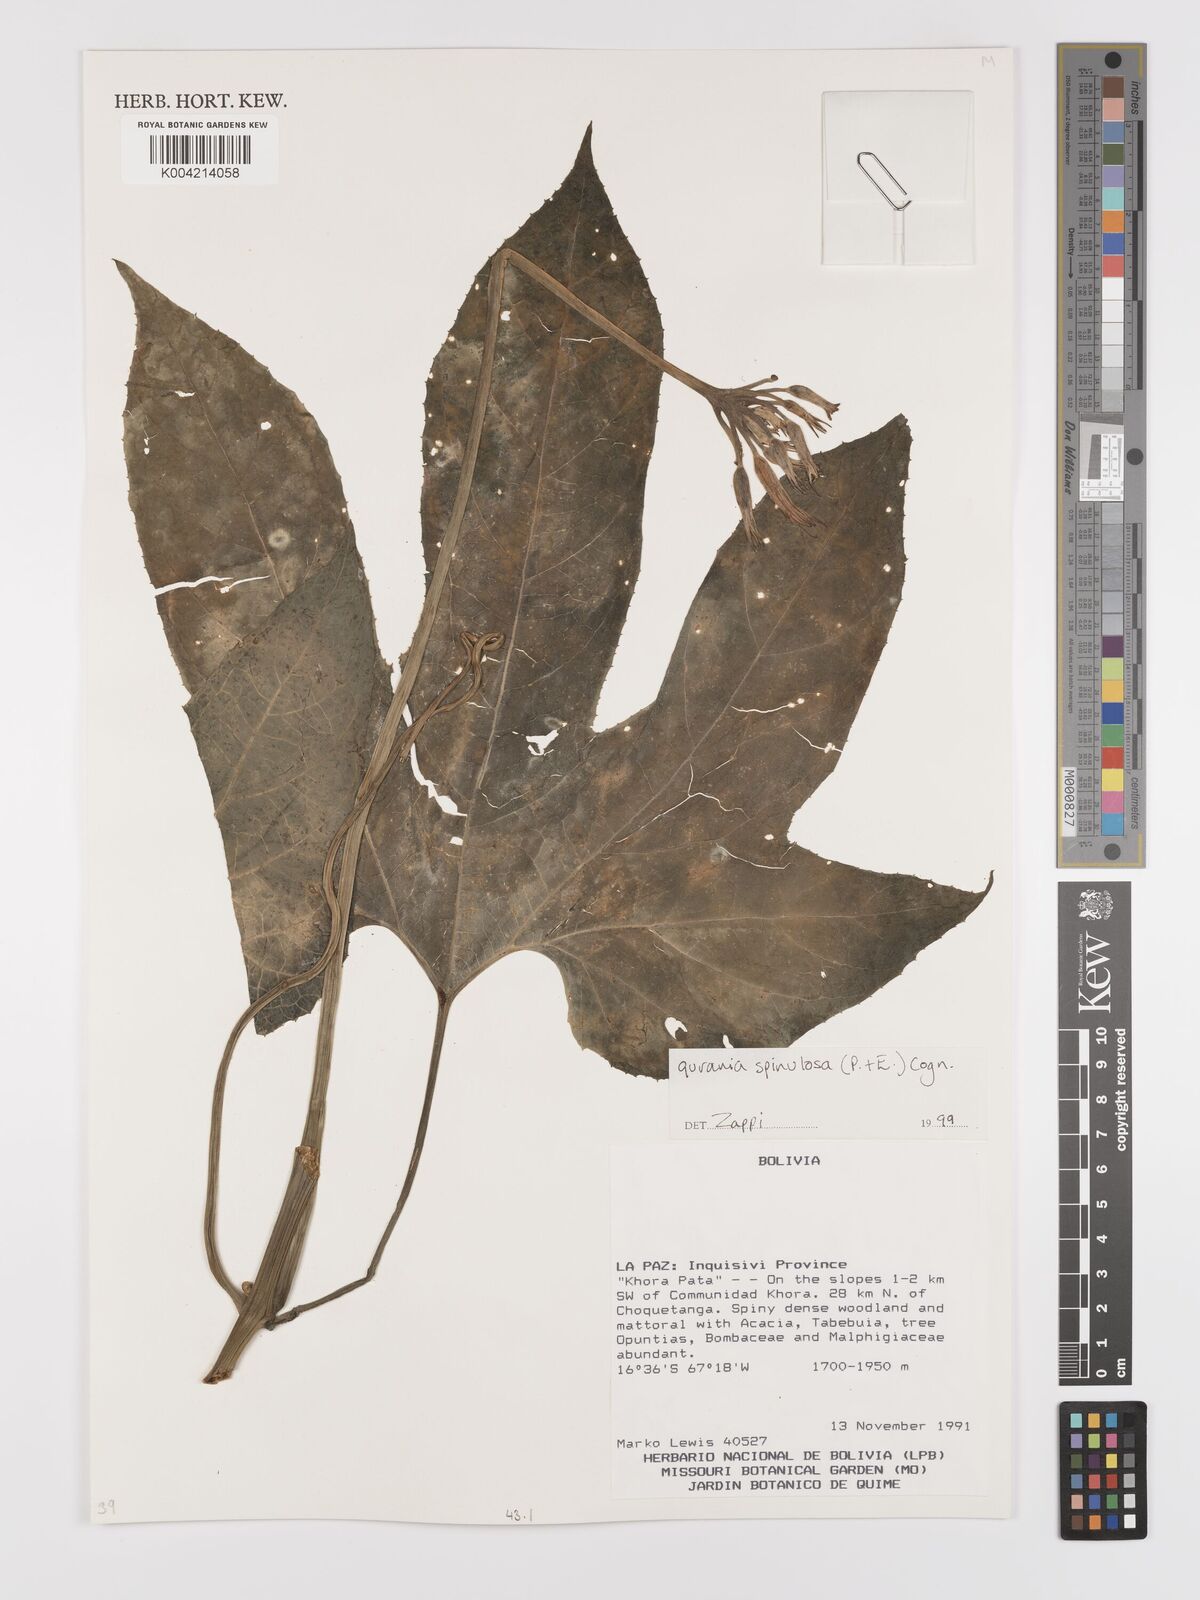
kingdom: Plantae
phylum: Tracheophyta
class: Magnoliopsida
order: Cucurbitales
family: Cucurbitaceae
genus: Gurania
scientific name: Gurania lobata
